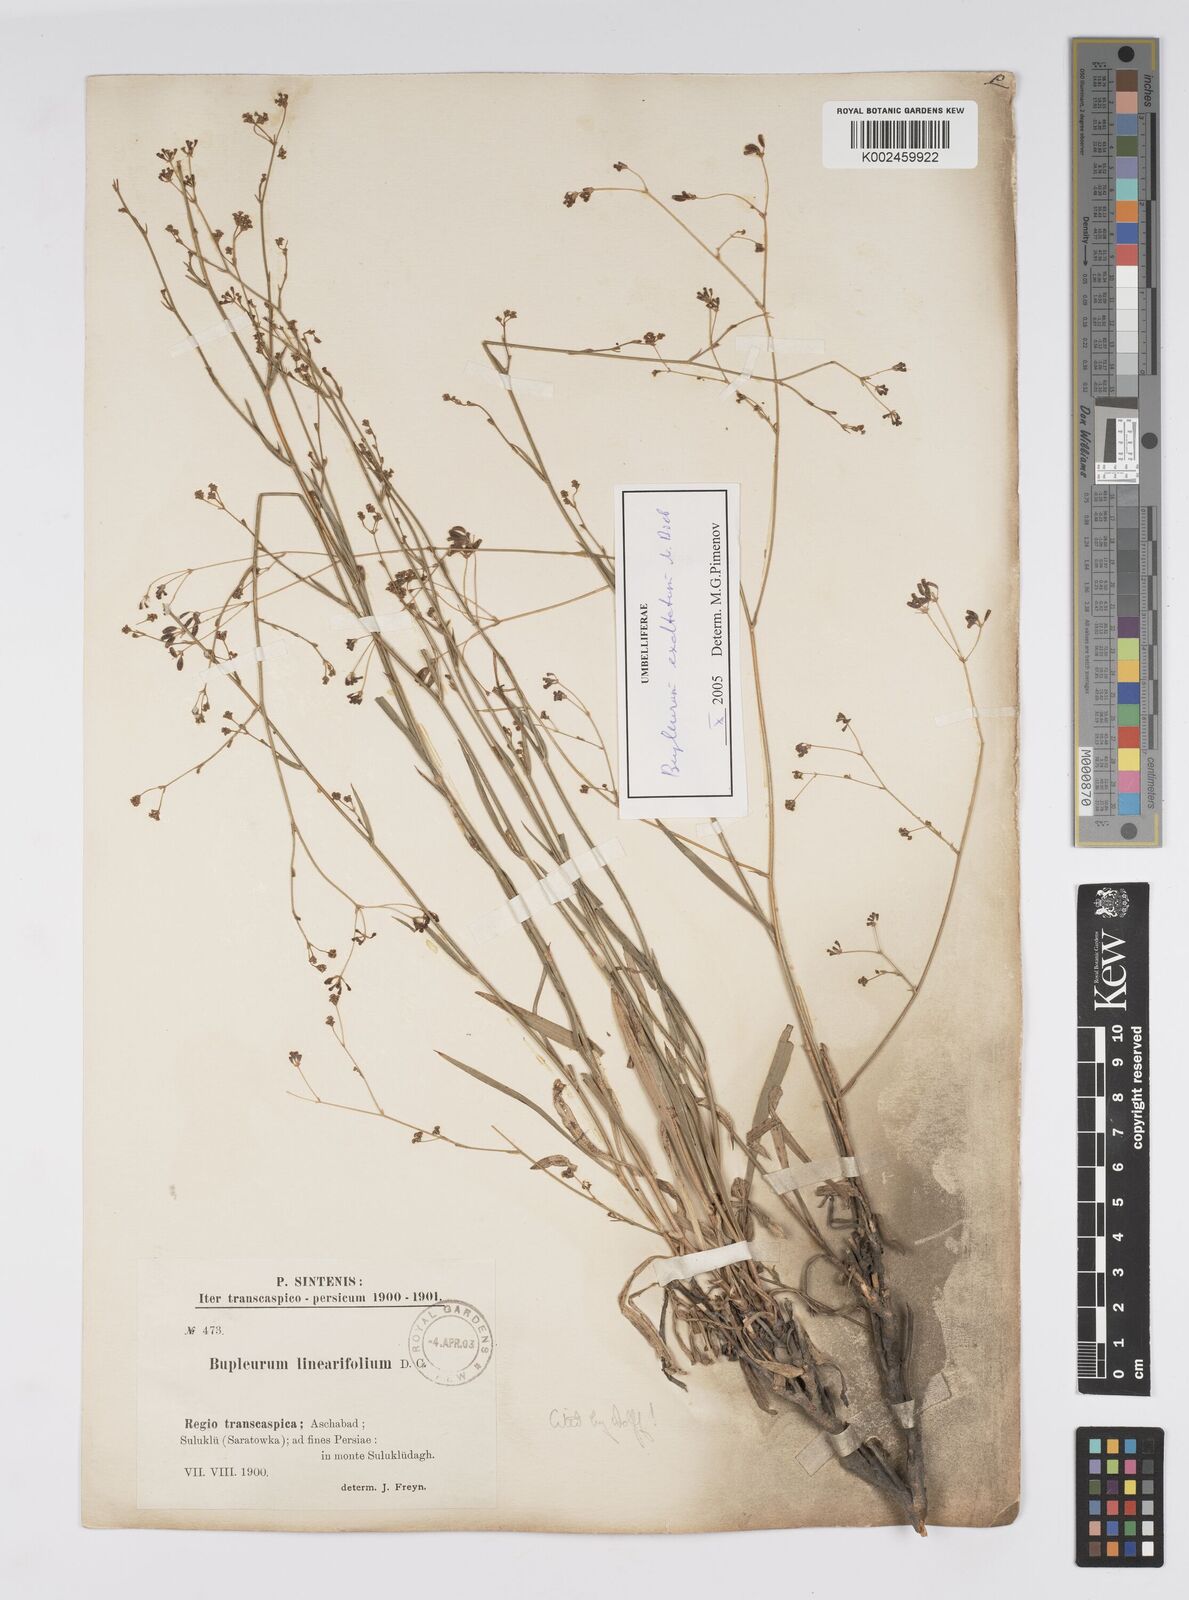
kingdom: Plantae
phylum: Tracheophyta
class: Magnoliopsida
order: Apiales
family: Apiaceae
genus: Bupleurum
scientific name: Bupleurum falcatum
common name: Sickle-leaved hare's-ear
